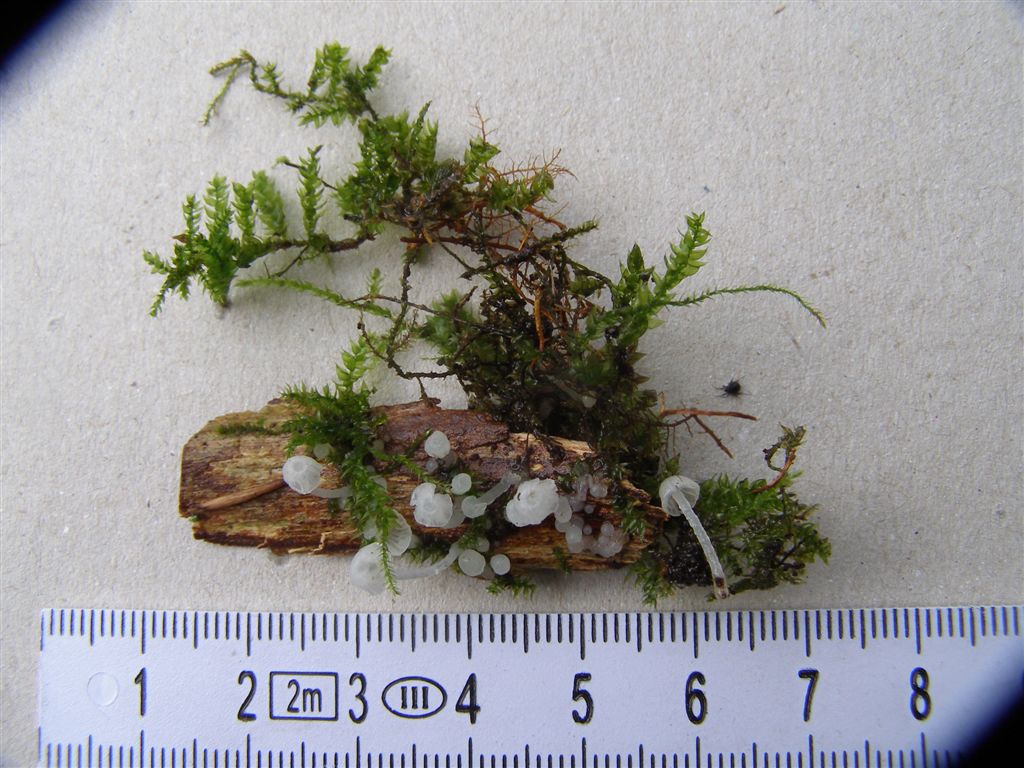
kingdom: Fungi
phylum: Basidiomycota
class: Agaricomycetes
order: Agaricales
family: Tricholomataceae
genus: Delicatula
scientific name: Delicatula integrella
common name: slørhuesvamp
